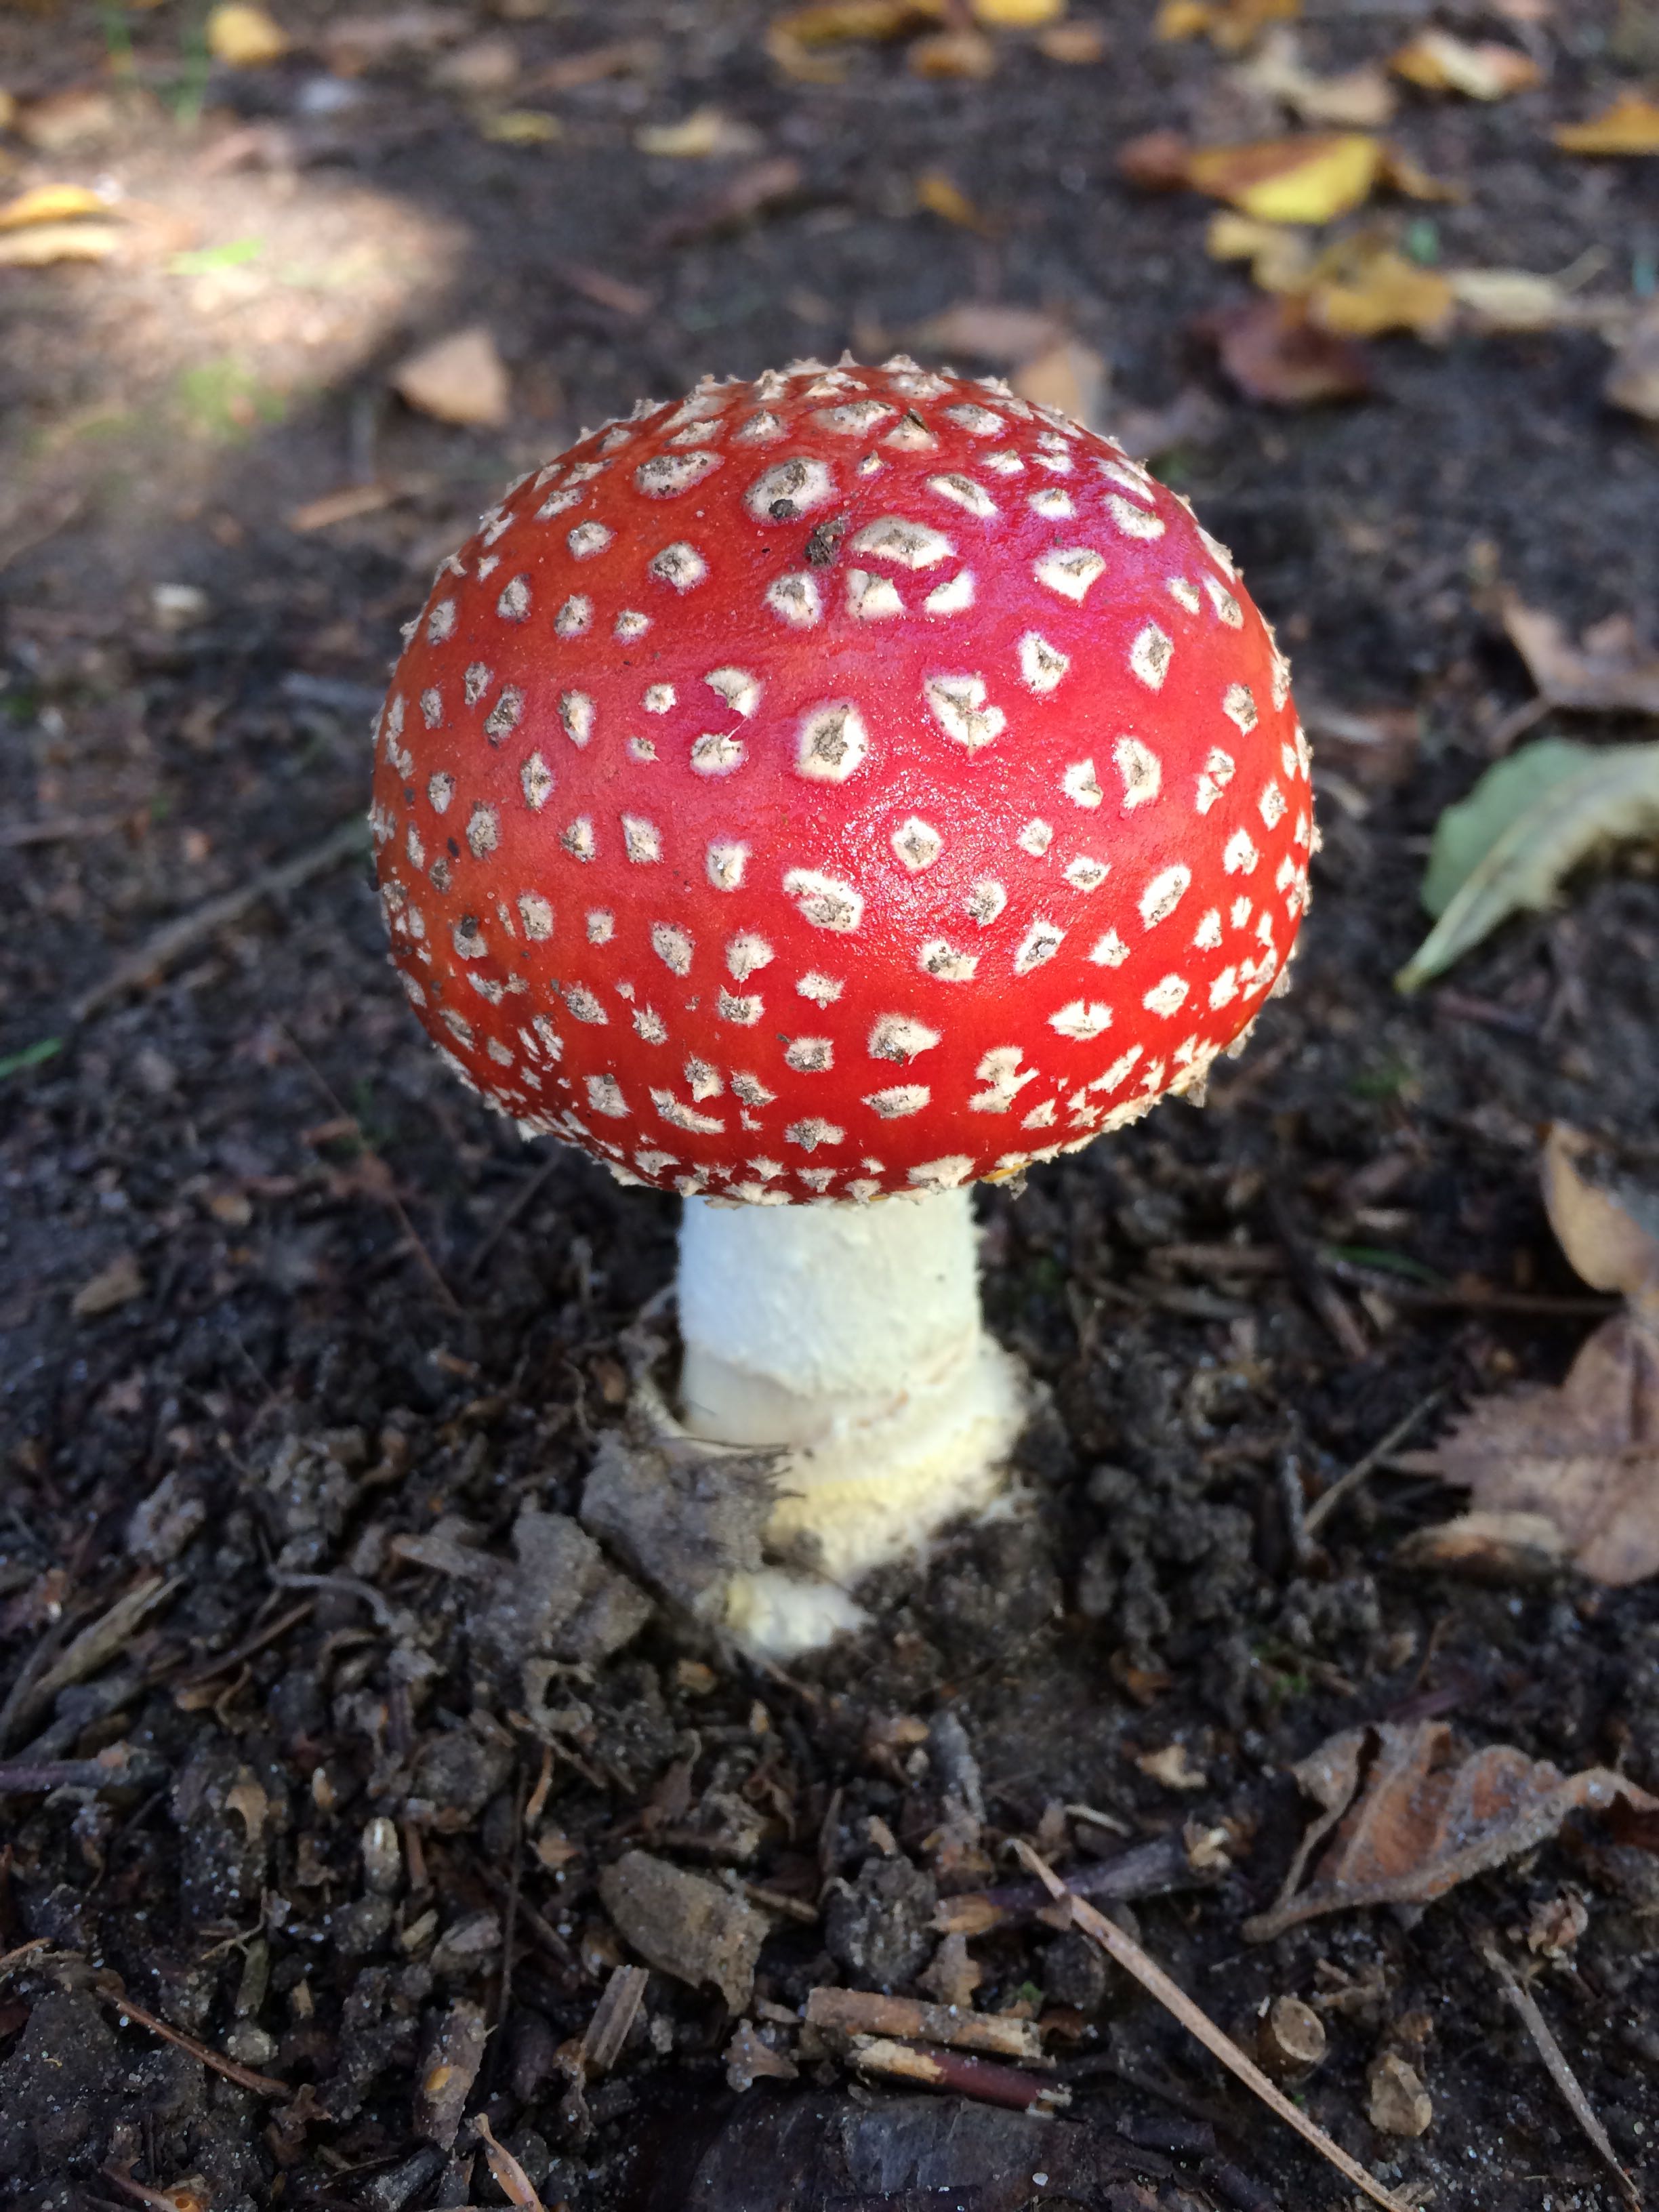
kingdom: Fungi
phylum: Basidiomycota
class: Agaricomycetes
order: Agaricales
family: Amanitaceae
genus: Amanita
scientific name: Amanita muscaria
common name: rød fluesvamp
